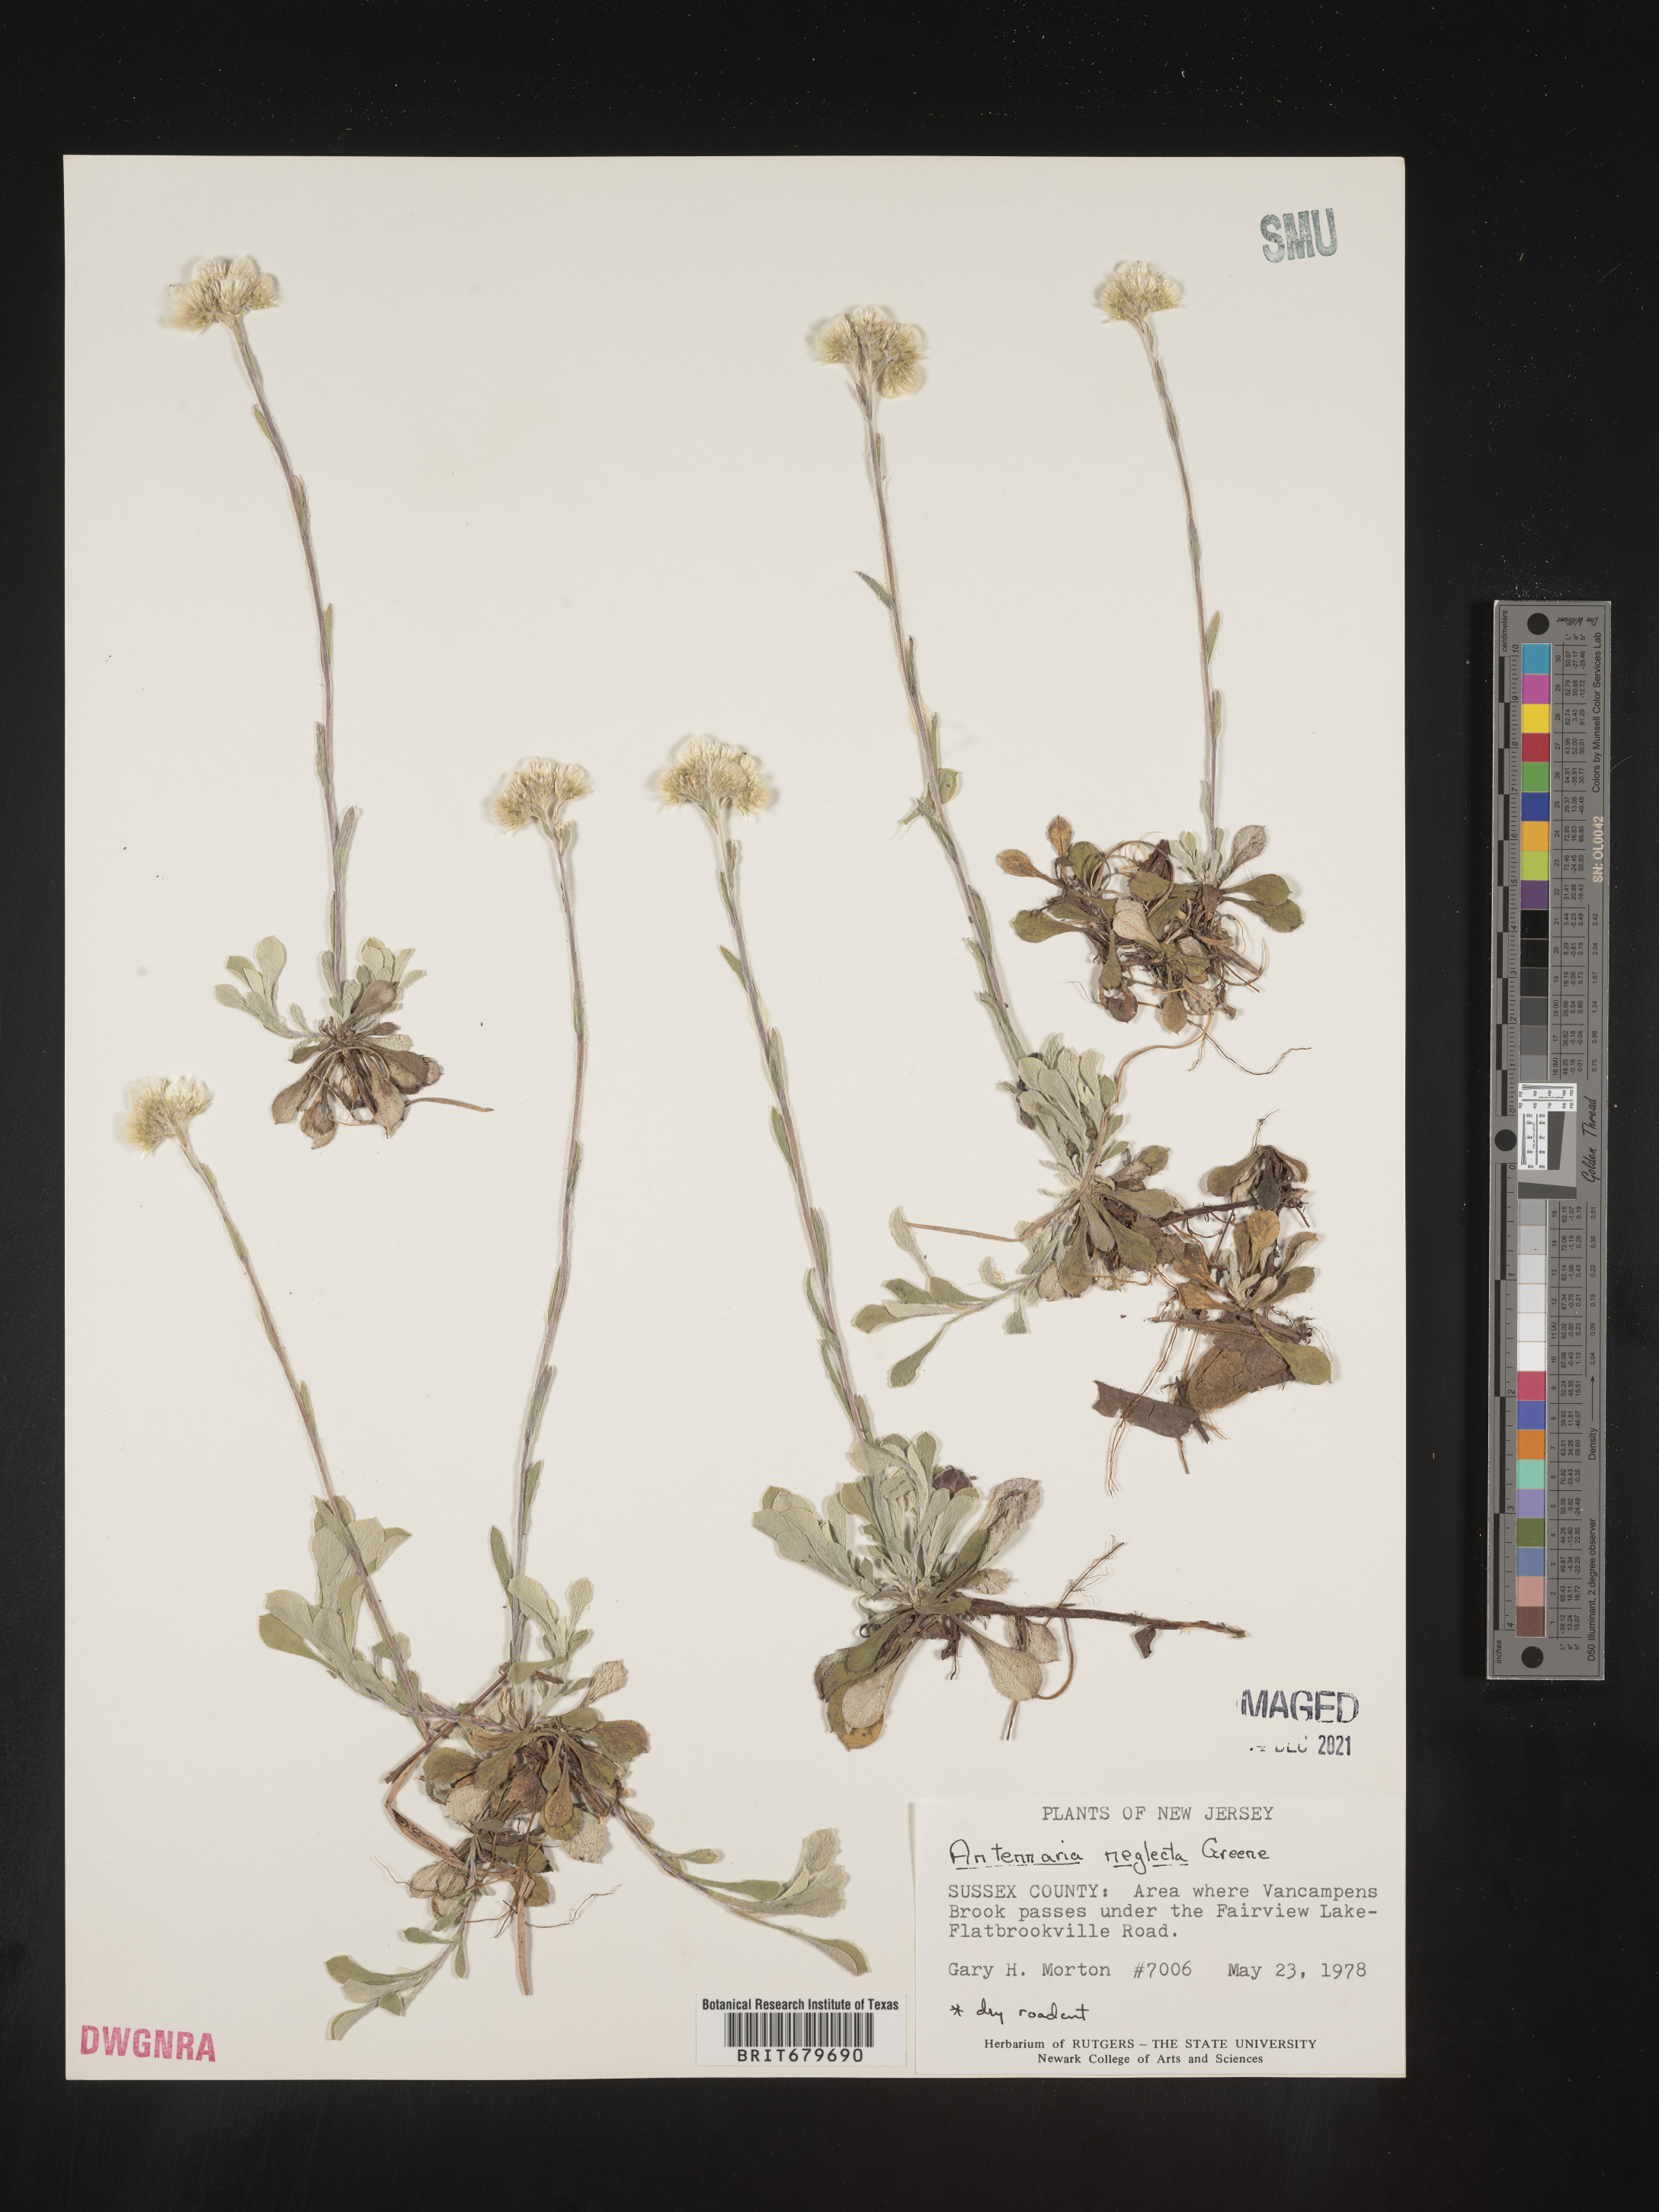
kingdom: Plantae
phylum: Tracheophyta
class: Magnoliopsida
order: Asterales
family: Asteraceae
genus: Antennaria
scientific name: Antennaria neglecta
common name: Field pussytoes
